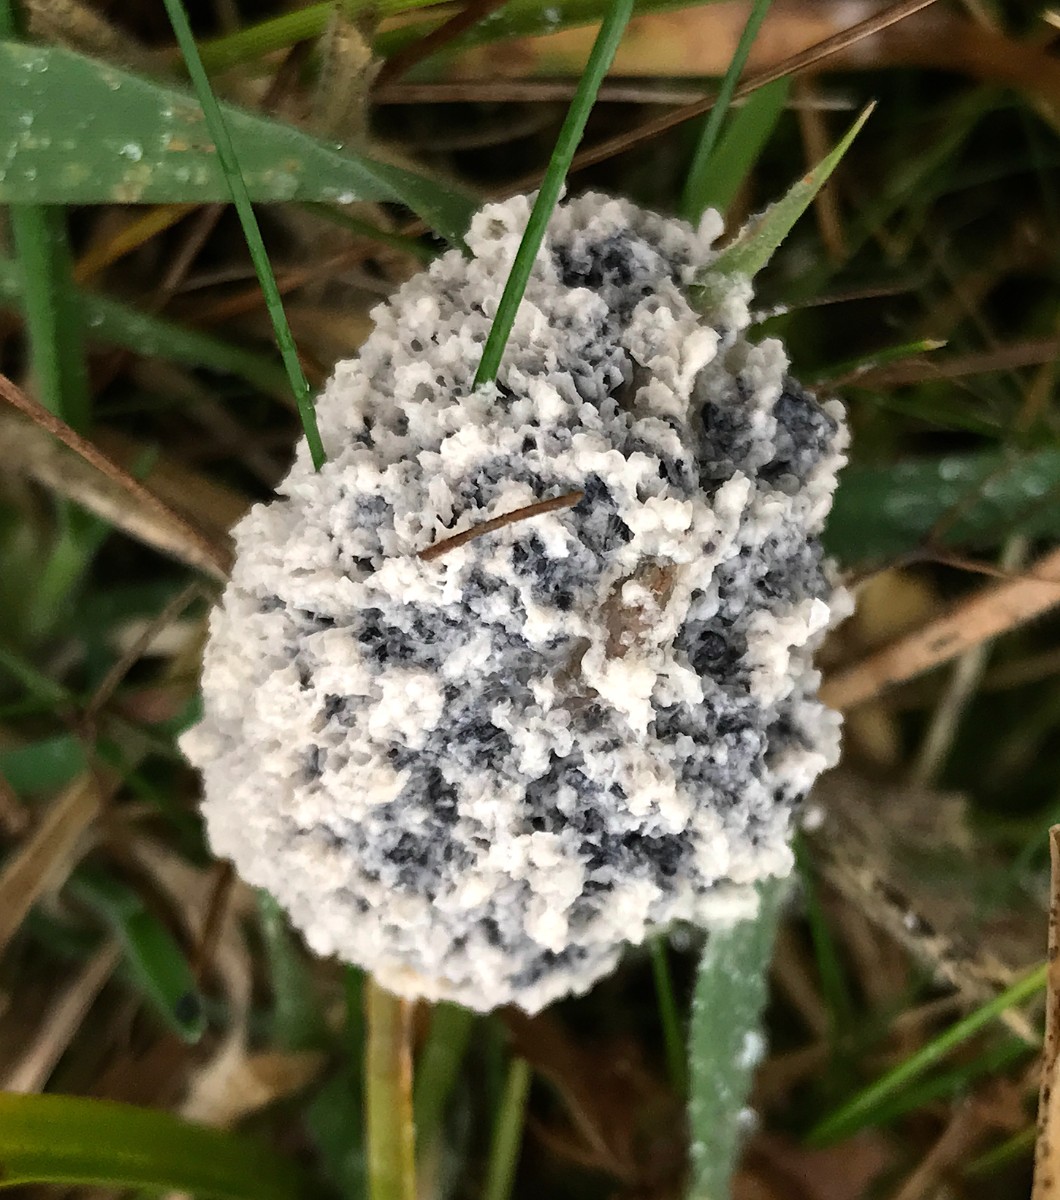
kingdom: Protozoa
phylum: Mycetozoa
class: Myxomycetes
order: Physarales
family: Physaraceae
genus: Didymium
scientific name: Didymium
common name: urteskum
